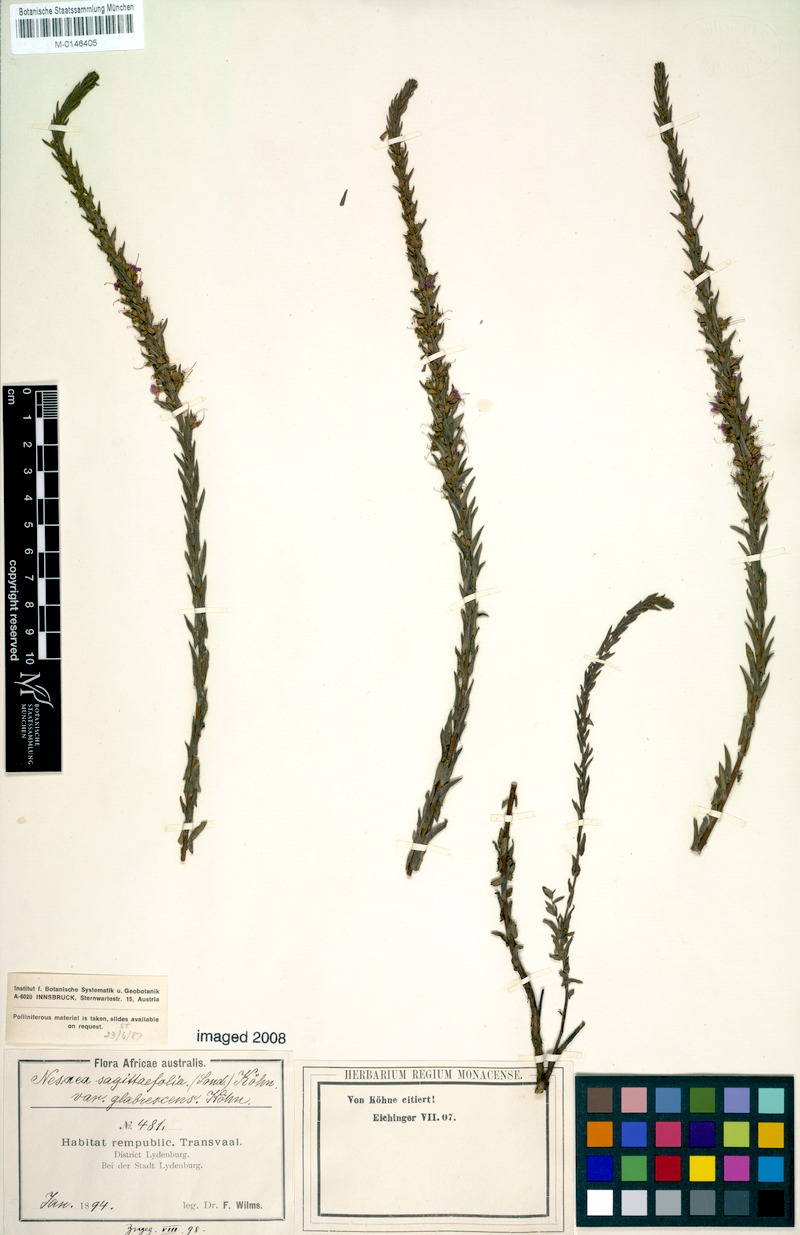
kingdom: Plantae
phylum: Tracheophyta
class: Magnoliopsida
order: Myrtales
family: Lythraceae
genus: Ammannia
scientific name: Ammannia sagittifolia
